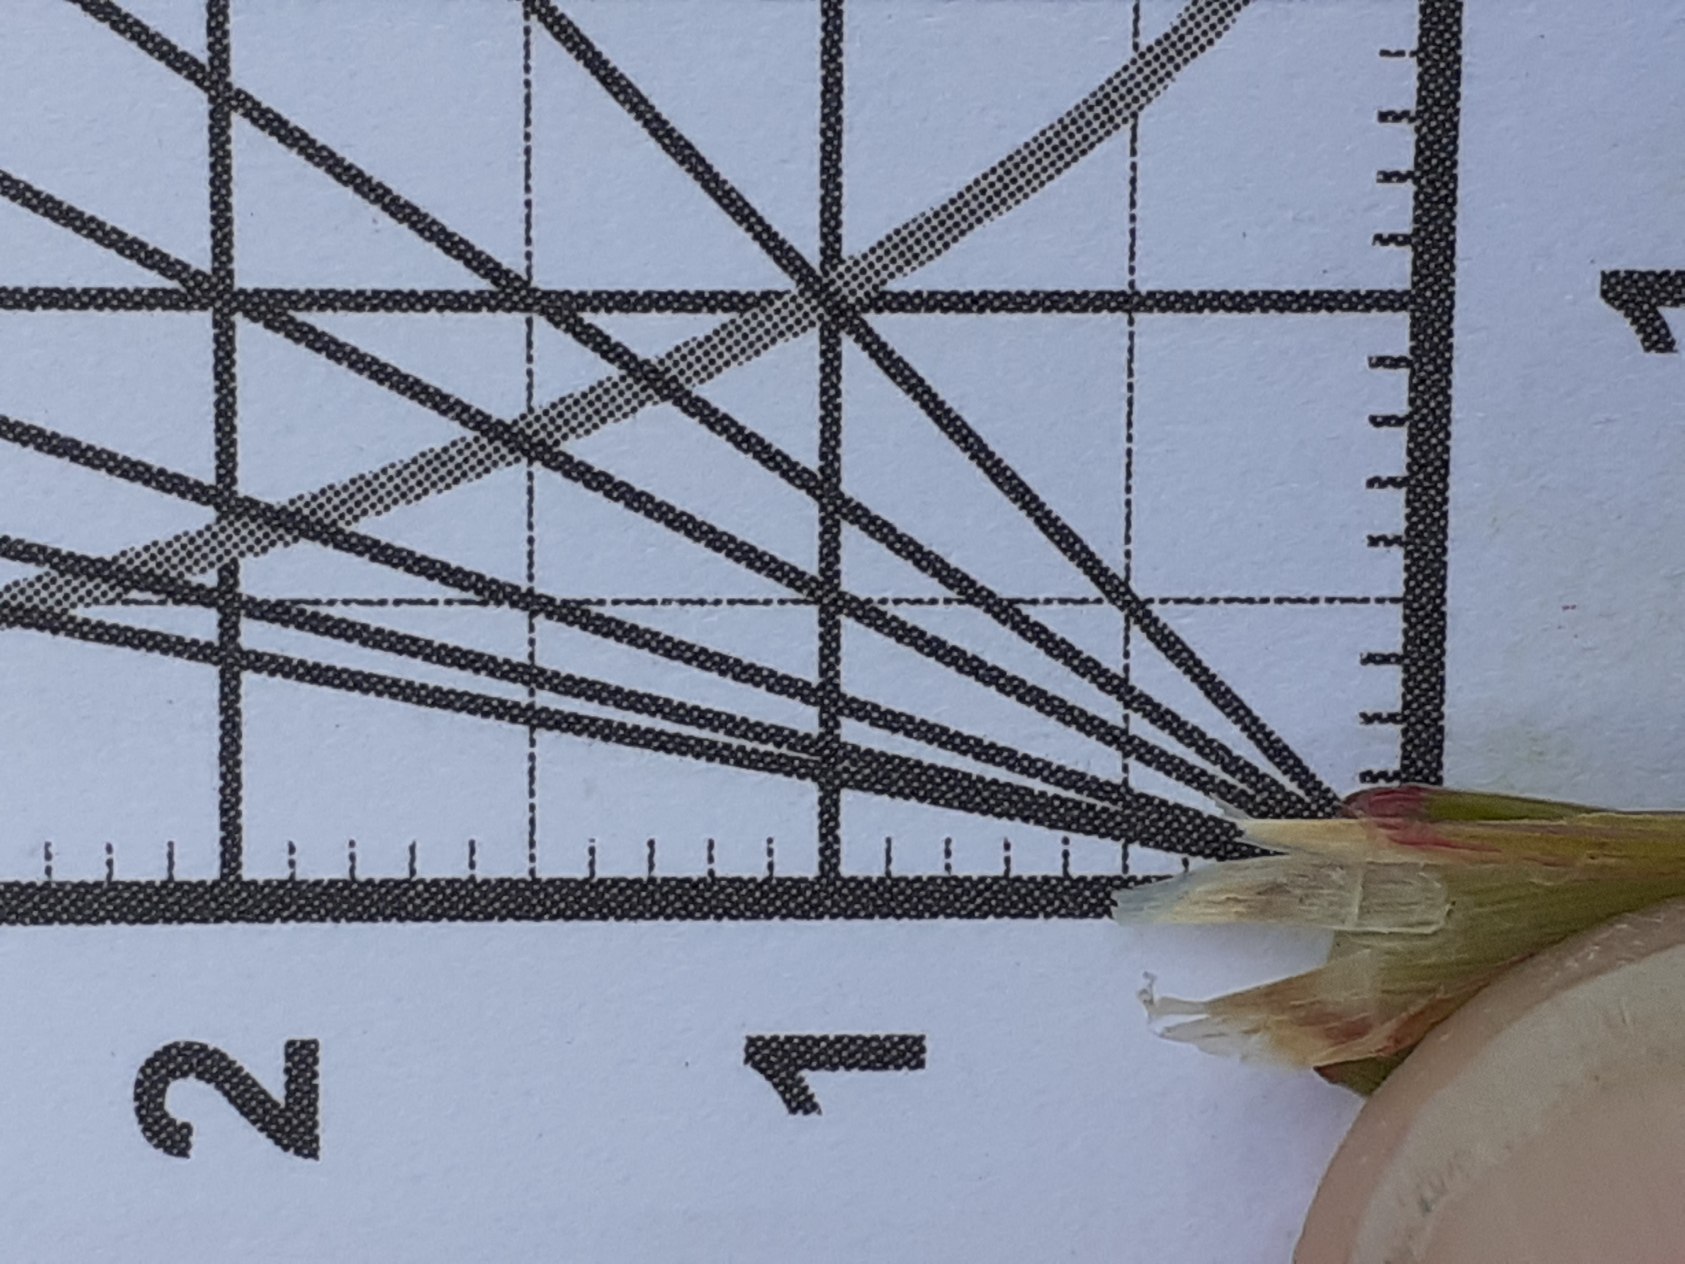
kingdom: Plantae
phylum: Tracheophyta
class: Liliopsida
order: Poales
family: Poaceae
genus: Calamagrostis
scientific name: Calamagrostis epigejos
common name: Bjerg-rørhvene
